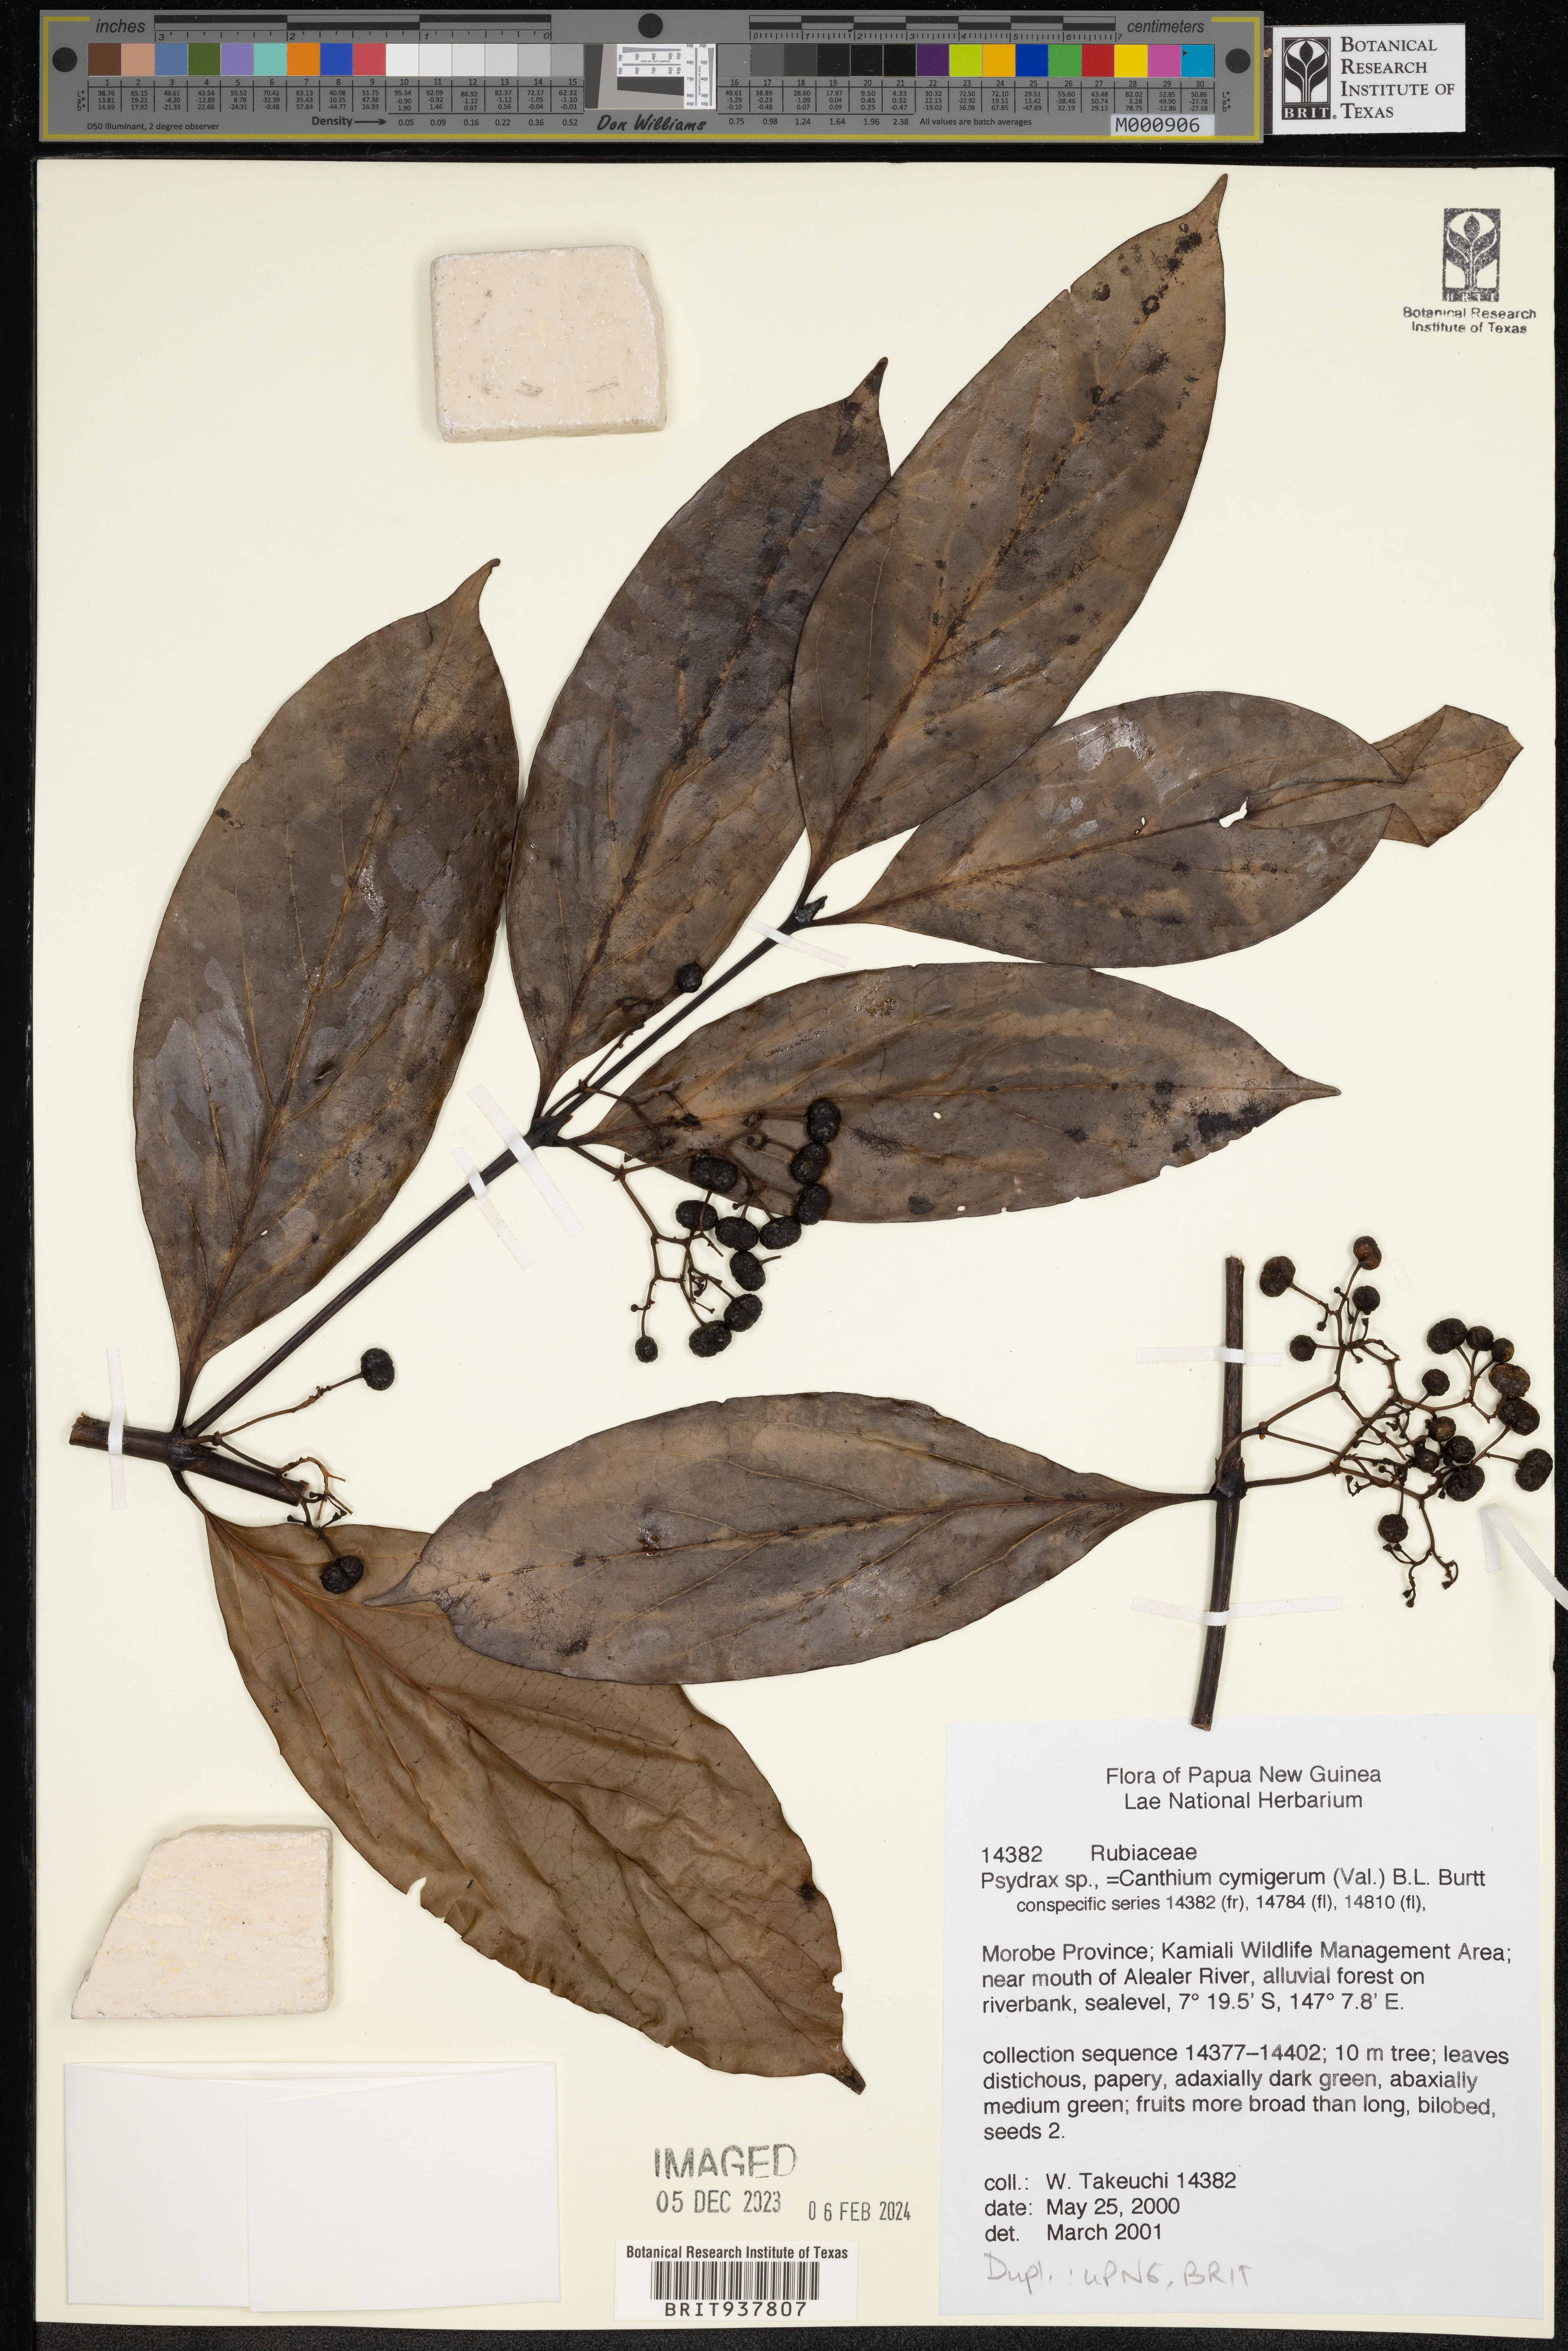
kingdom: Plantae
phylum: Tracheophyta
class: Magnoliopsida
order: Gentianales
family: Rubiaceae
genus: Canthium
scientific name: Canthium
